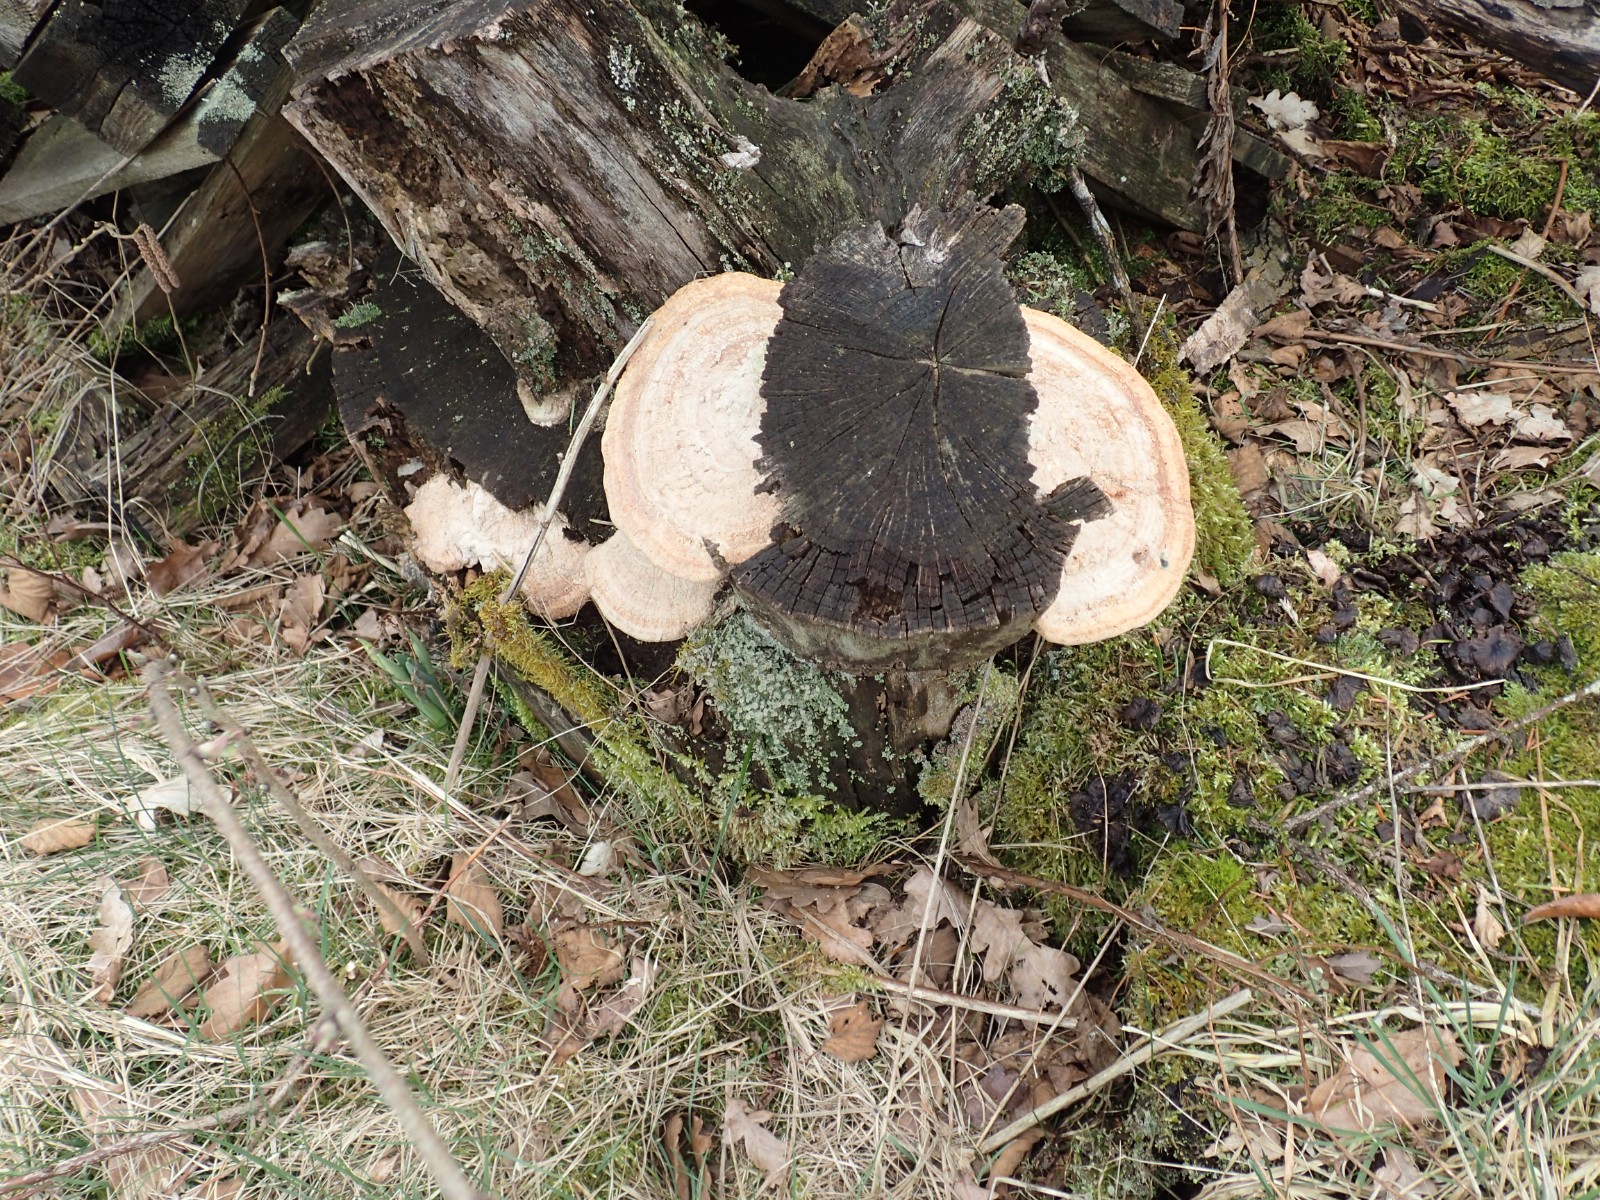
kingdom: Fungi
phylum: Basidiomycota
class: Agaricomycetes
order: Polyporales
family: Fomitopsidaceae
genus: Daedalea
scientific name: Daedalea quercina
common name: ege-labyrintsvamp
